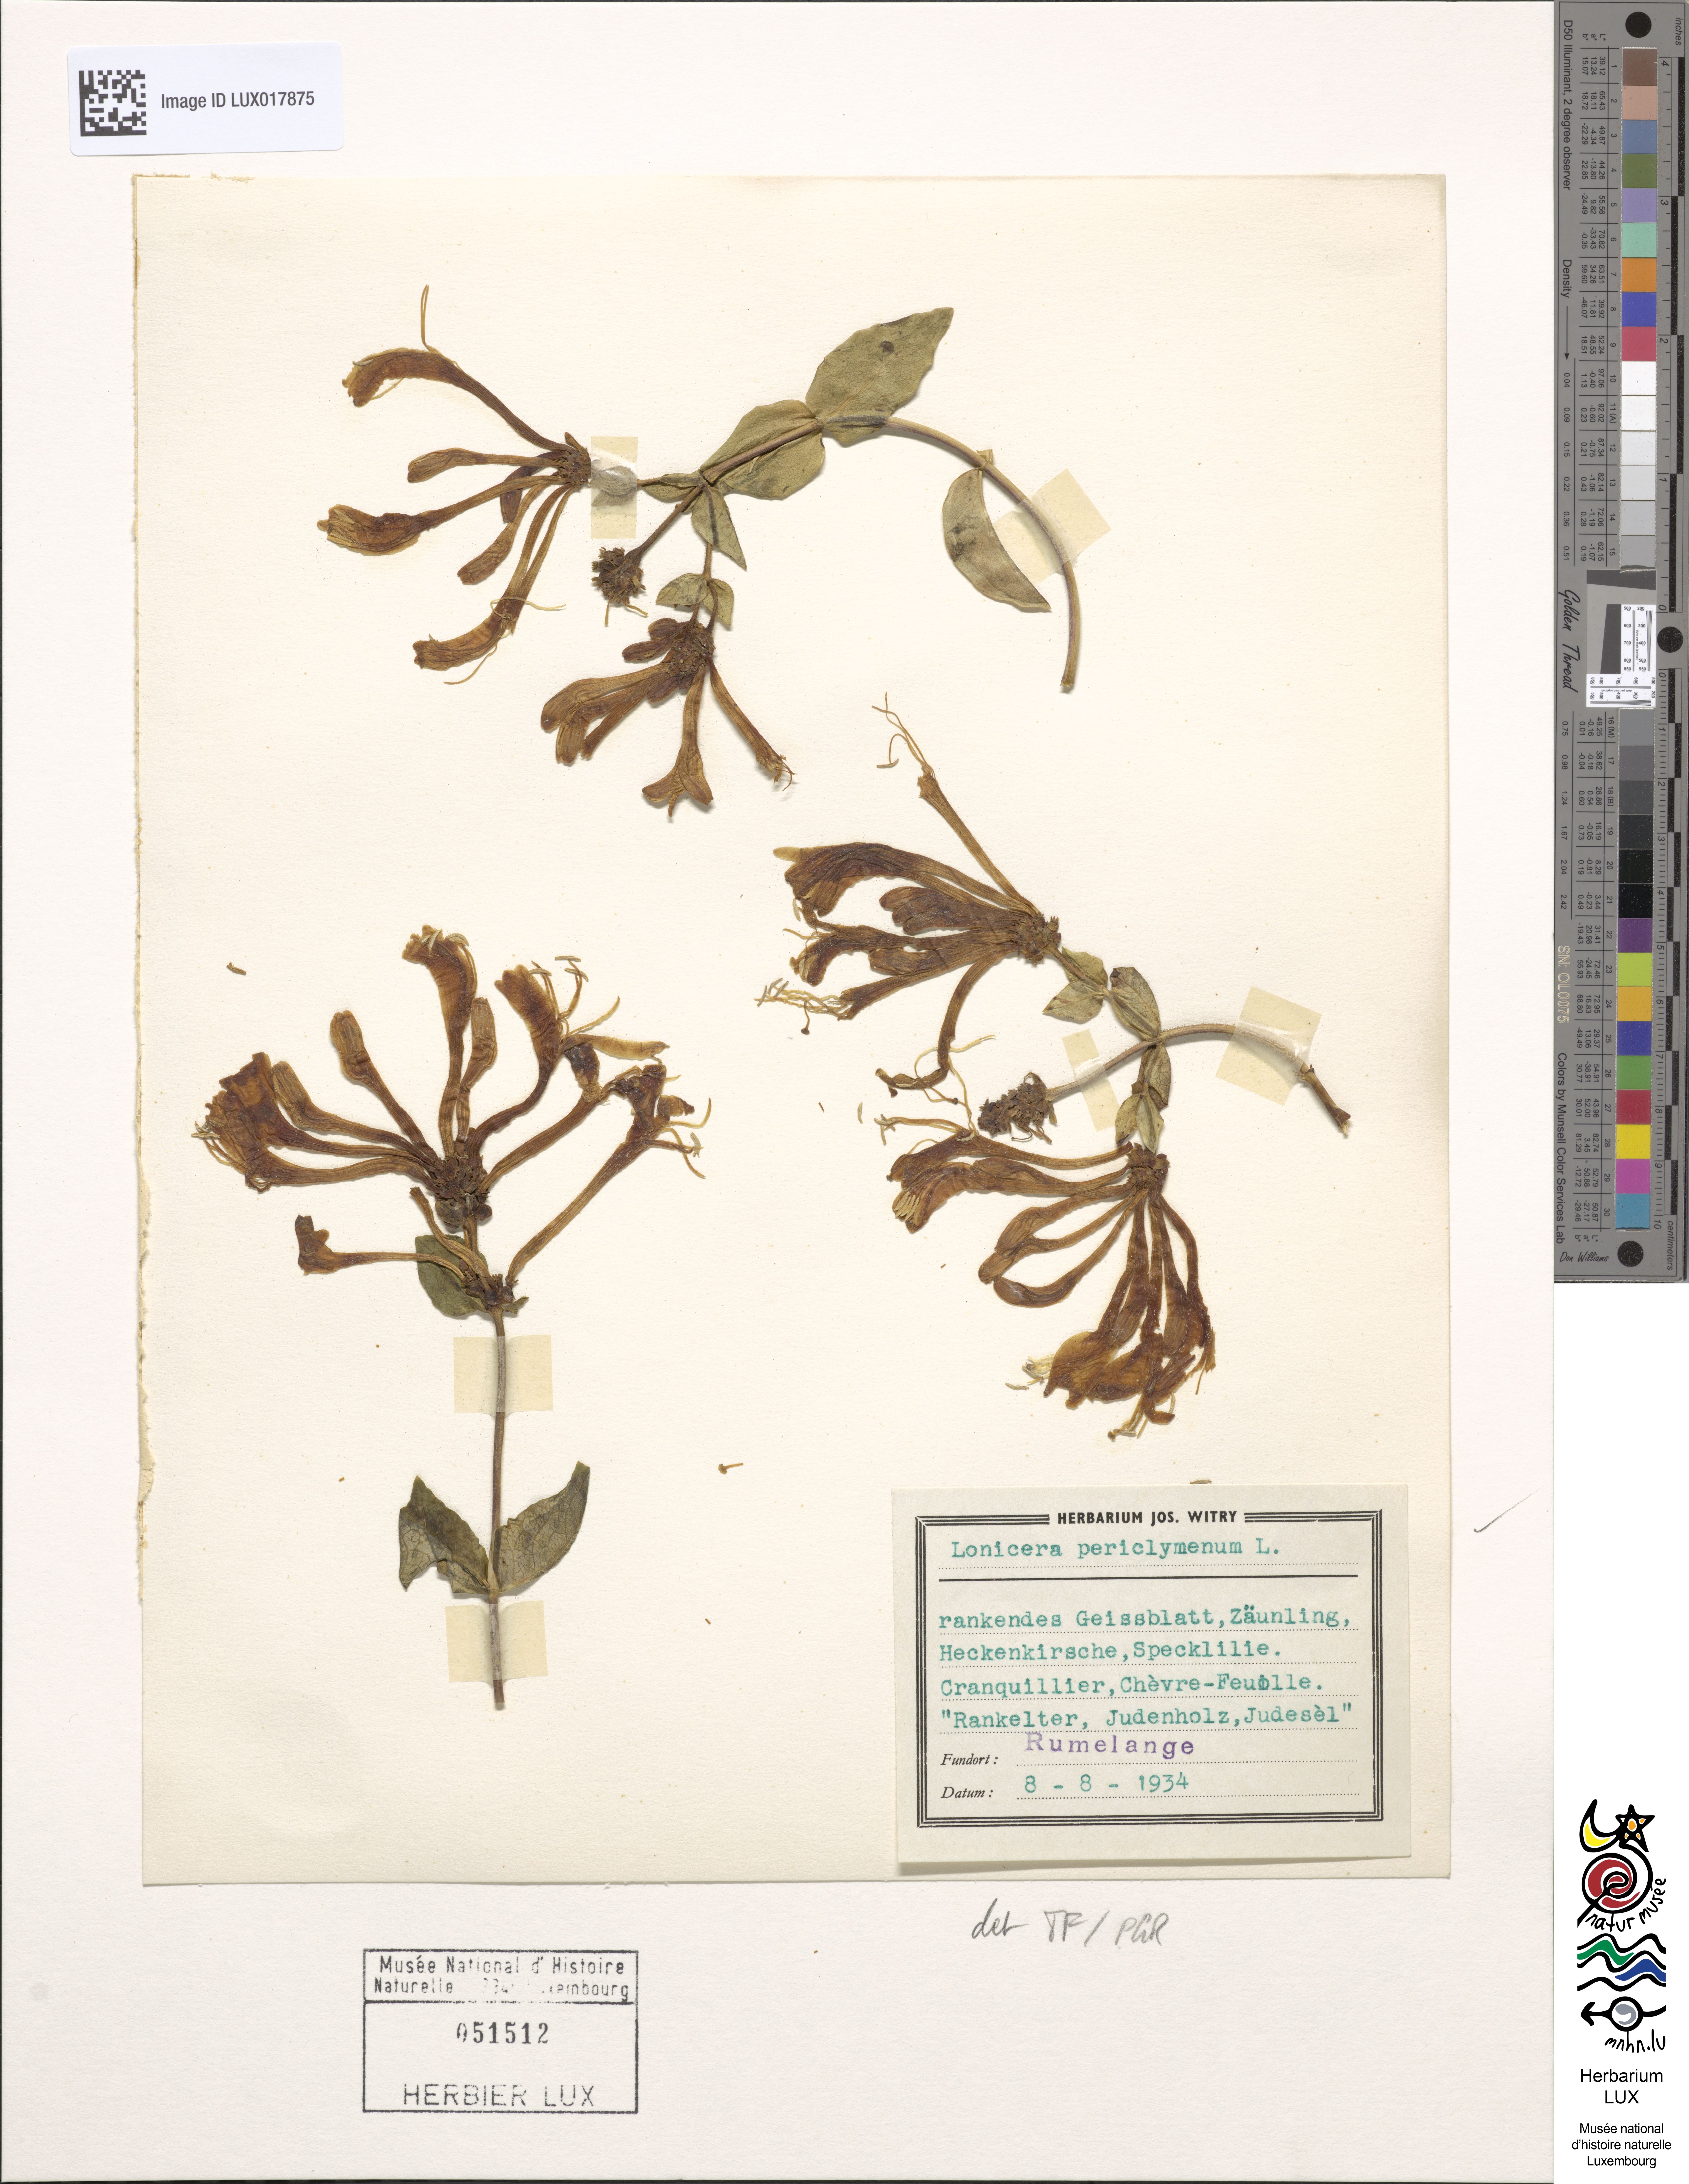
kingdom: Plantae
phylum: Tracheophyta
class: Magnoliopsida
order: Dipsacales
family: Caprifoliaceae
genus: Lonicera
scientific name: Lonicera periclymenum
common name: European honeysuckle
